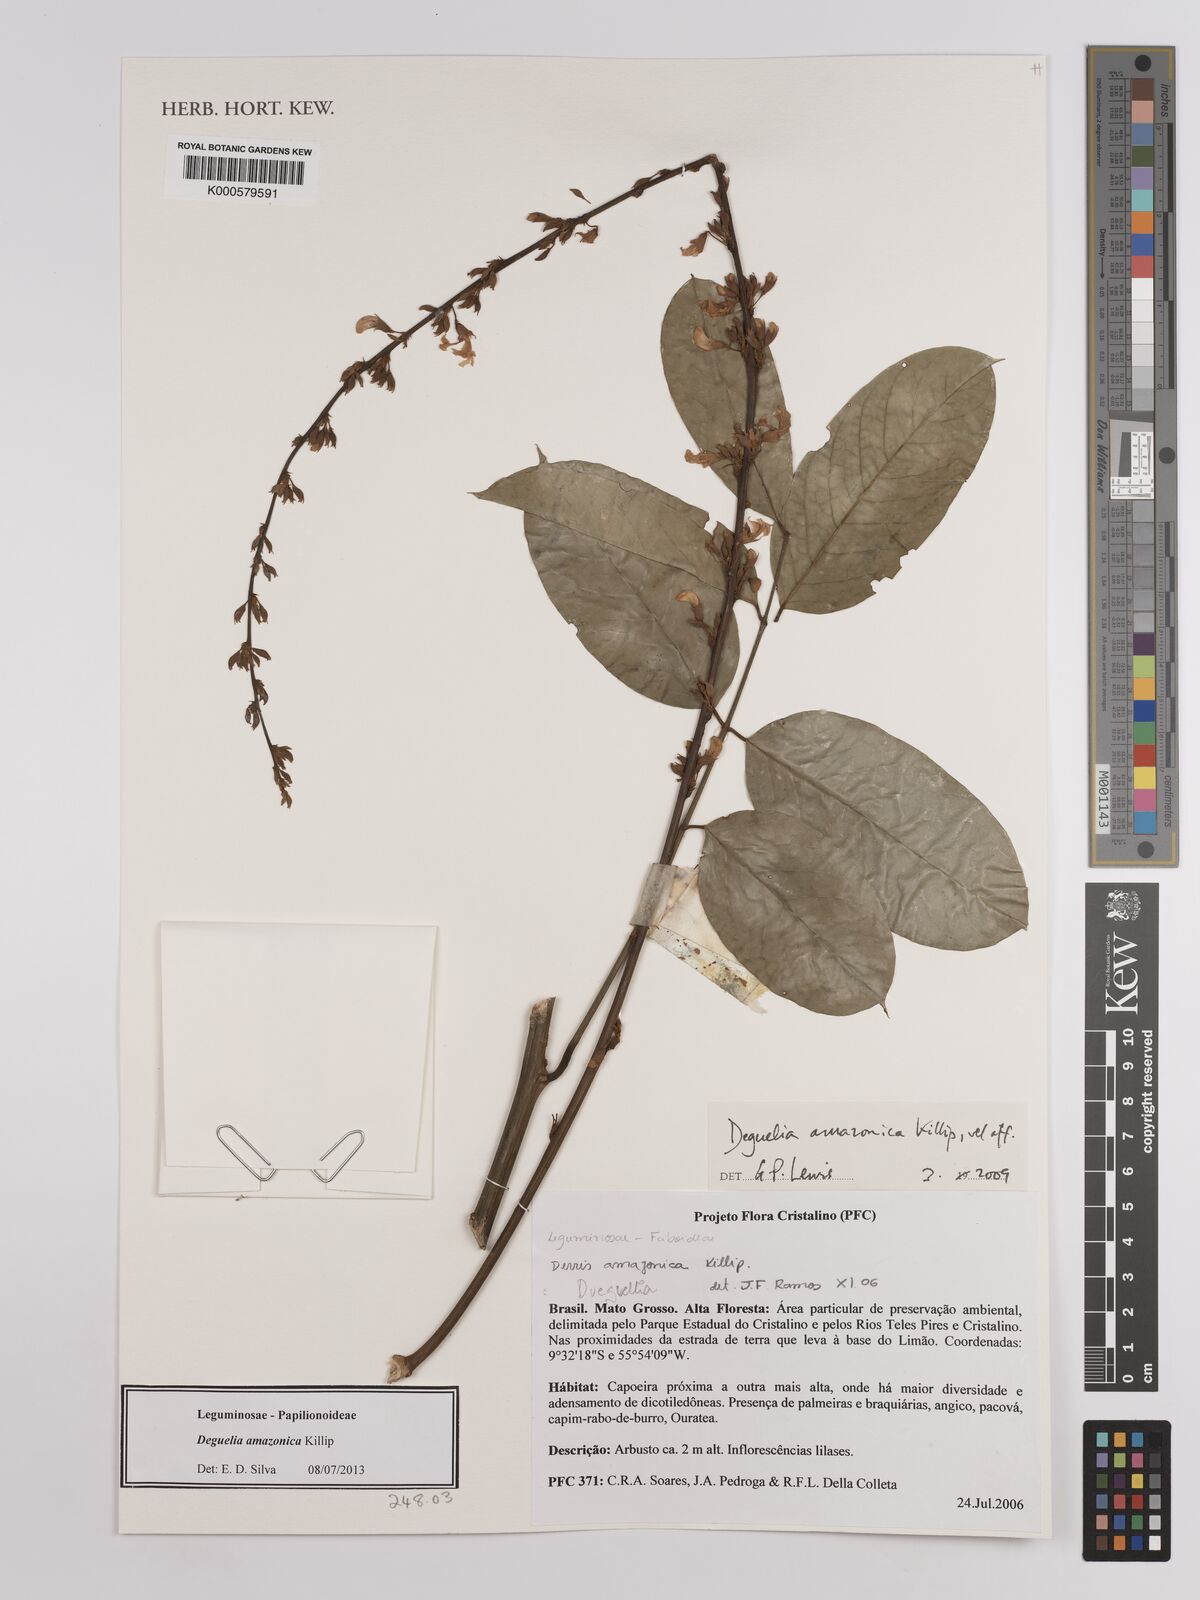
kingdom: Plantae
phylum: Tracheophyta
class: Magnoliopsida
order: Fabales
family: Fabaceae
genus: Copaifera
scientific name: Copaifera
